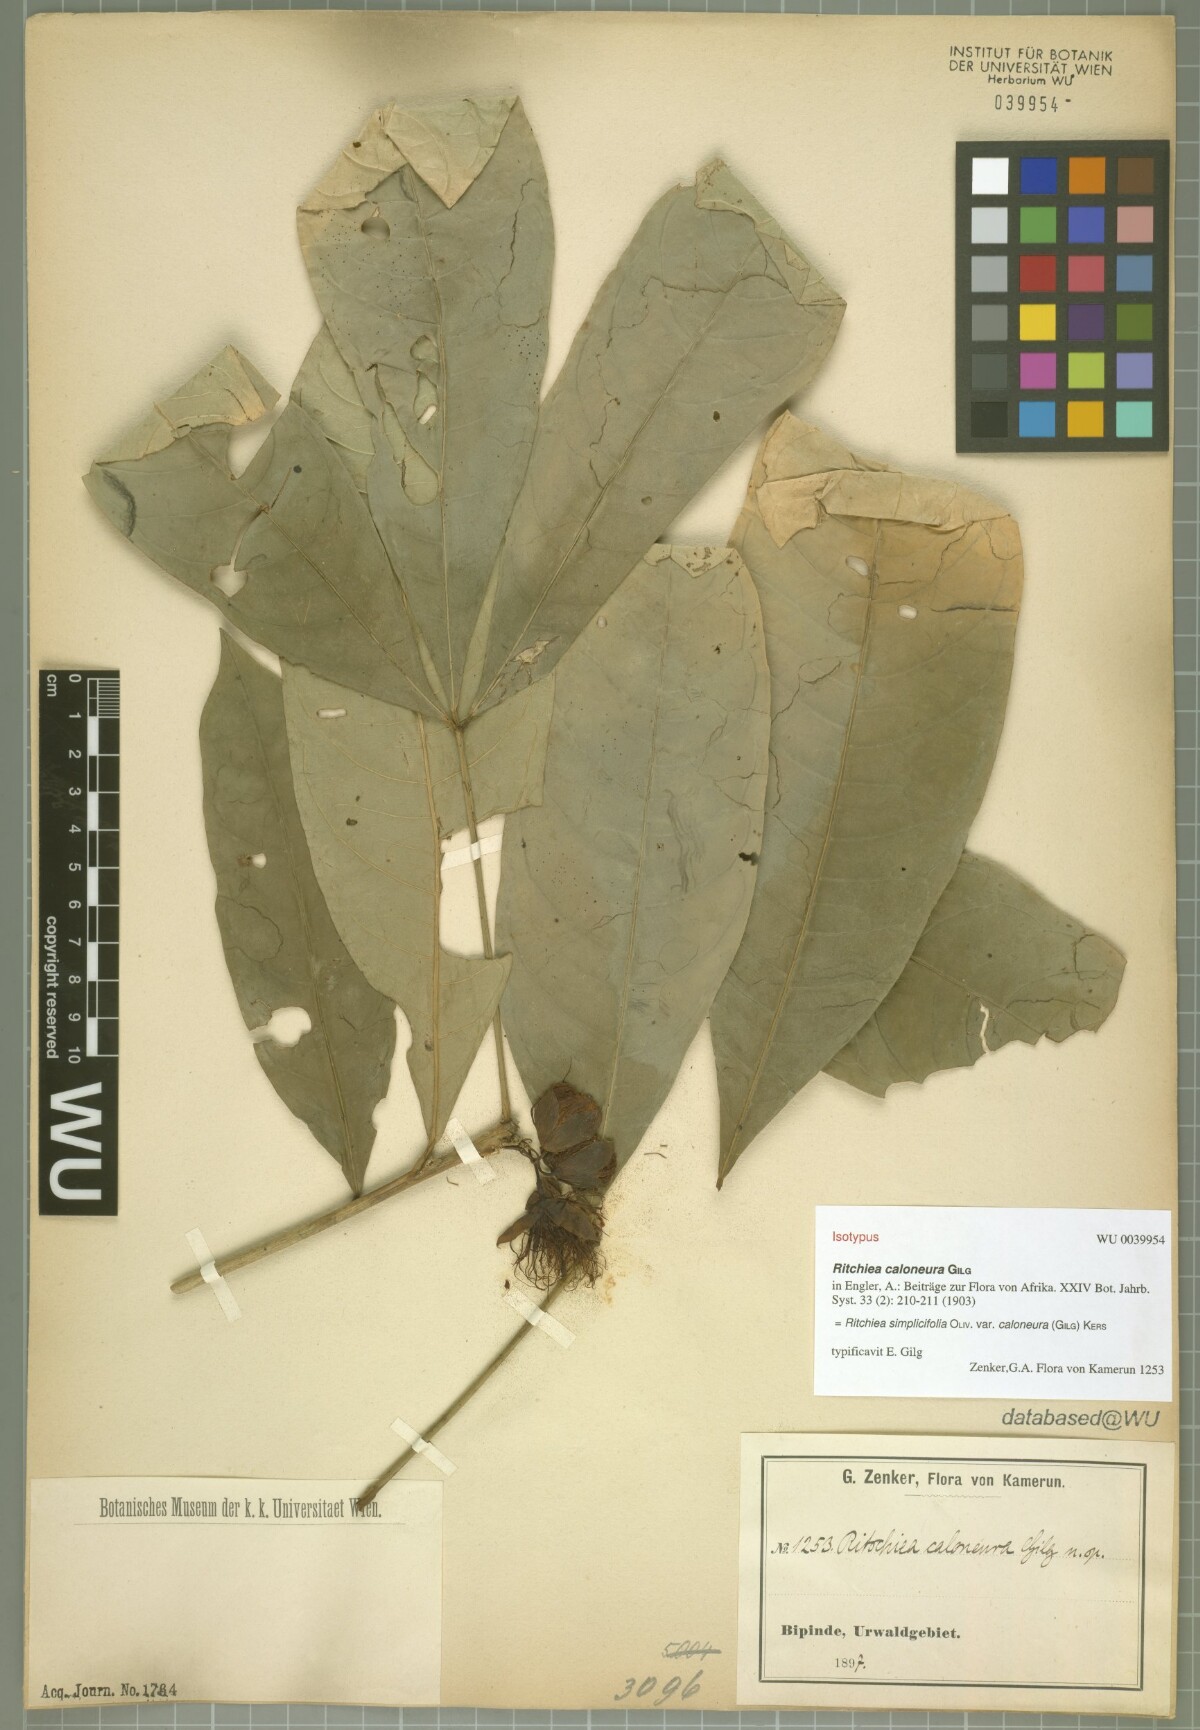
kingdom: Plantae
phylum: Tracheophyta
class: Magnoliopsida
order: Brassicales
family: Capparaceae
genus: Ritchiea
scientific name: Ritchiea simplicifolia
